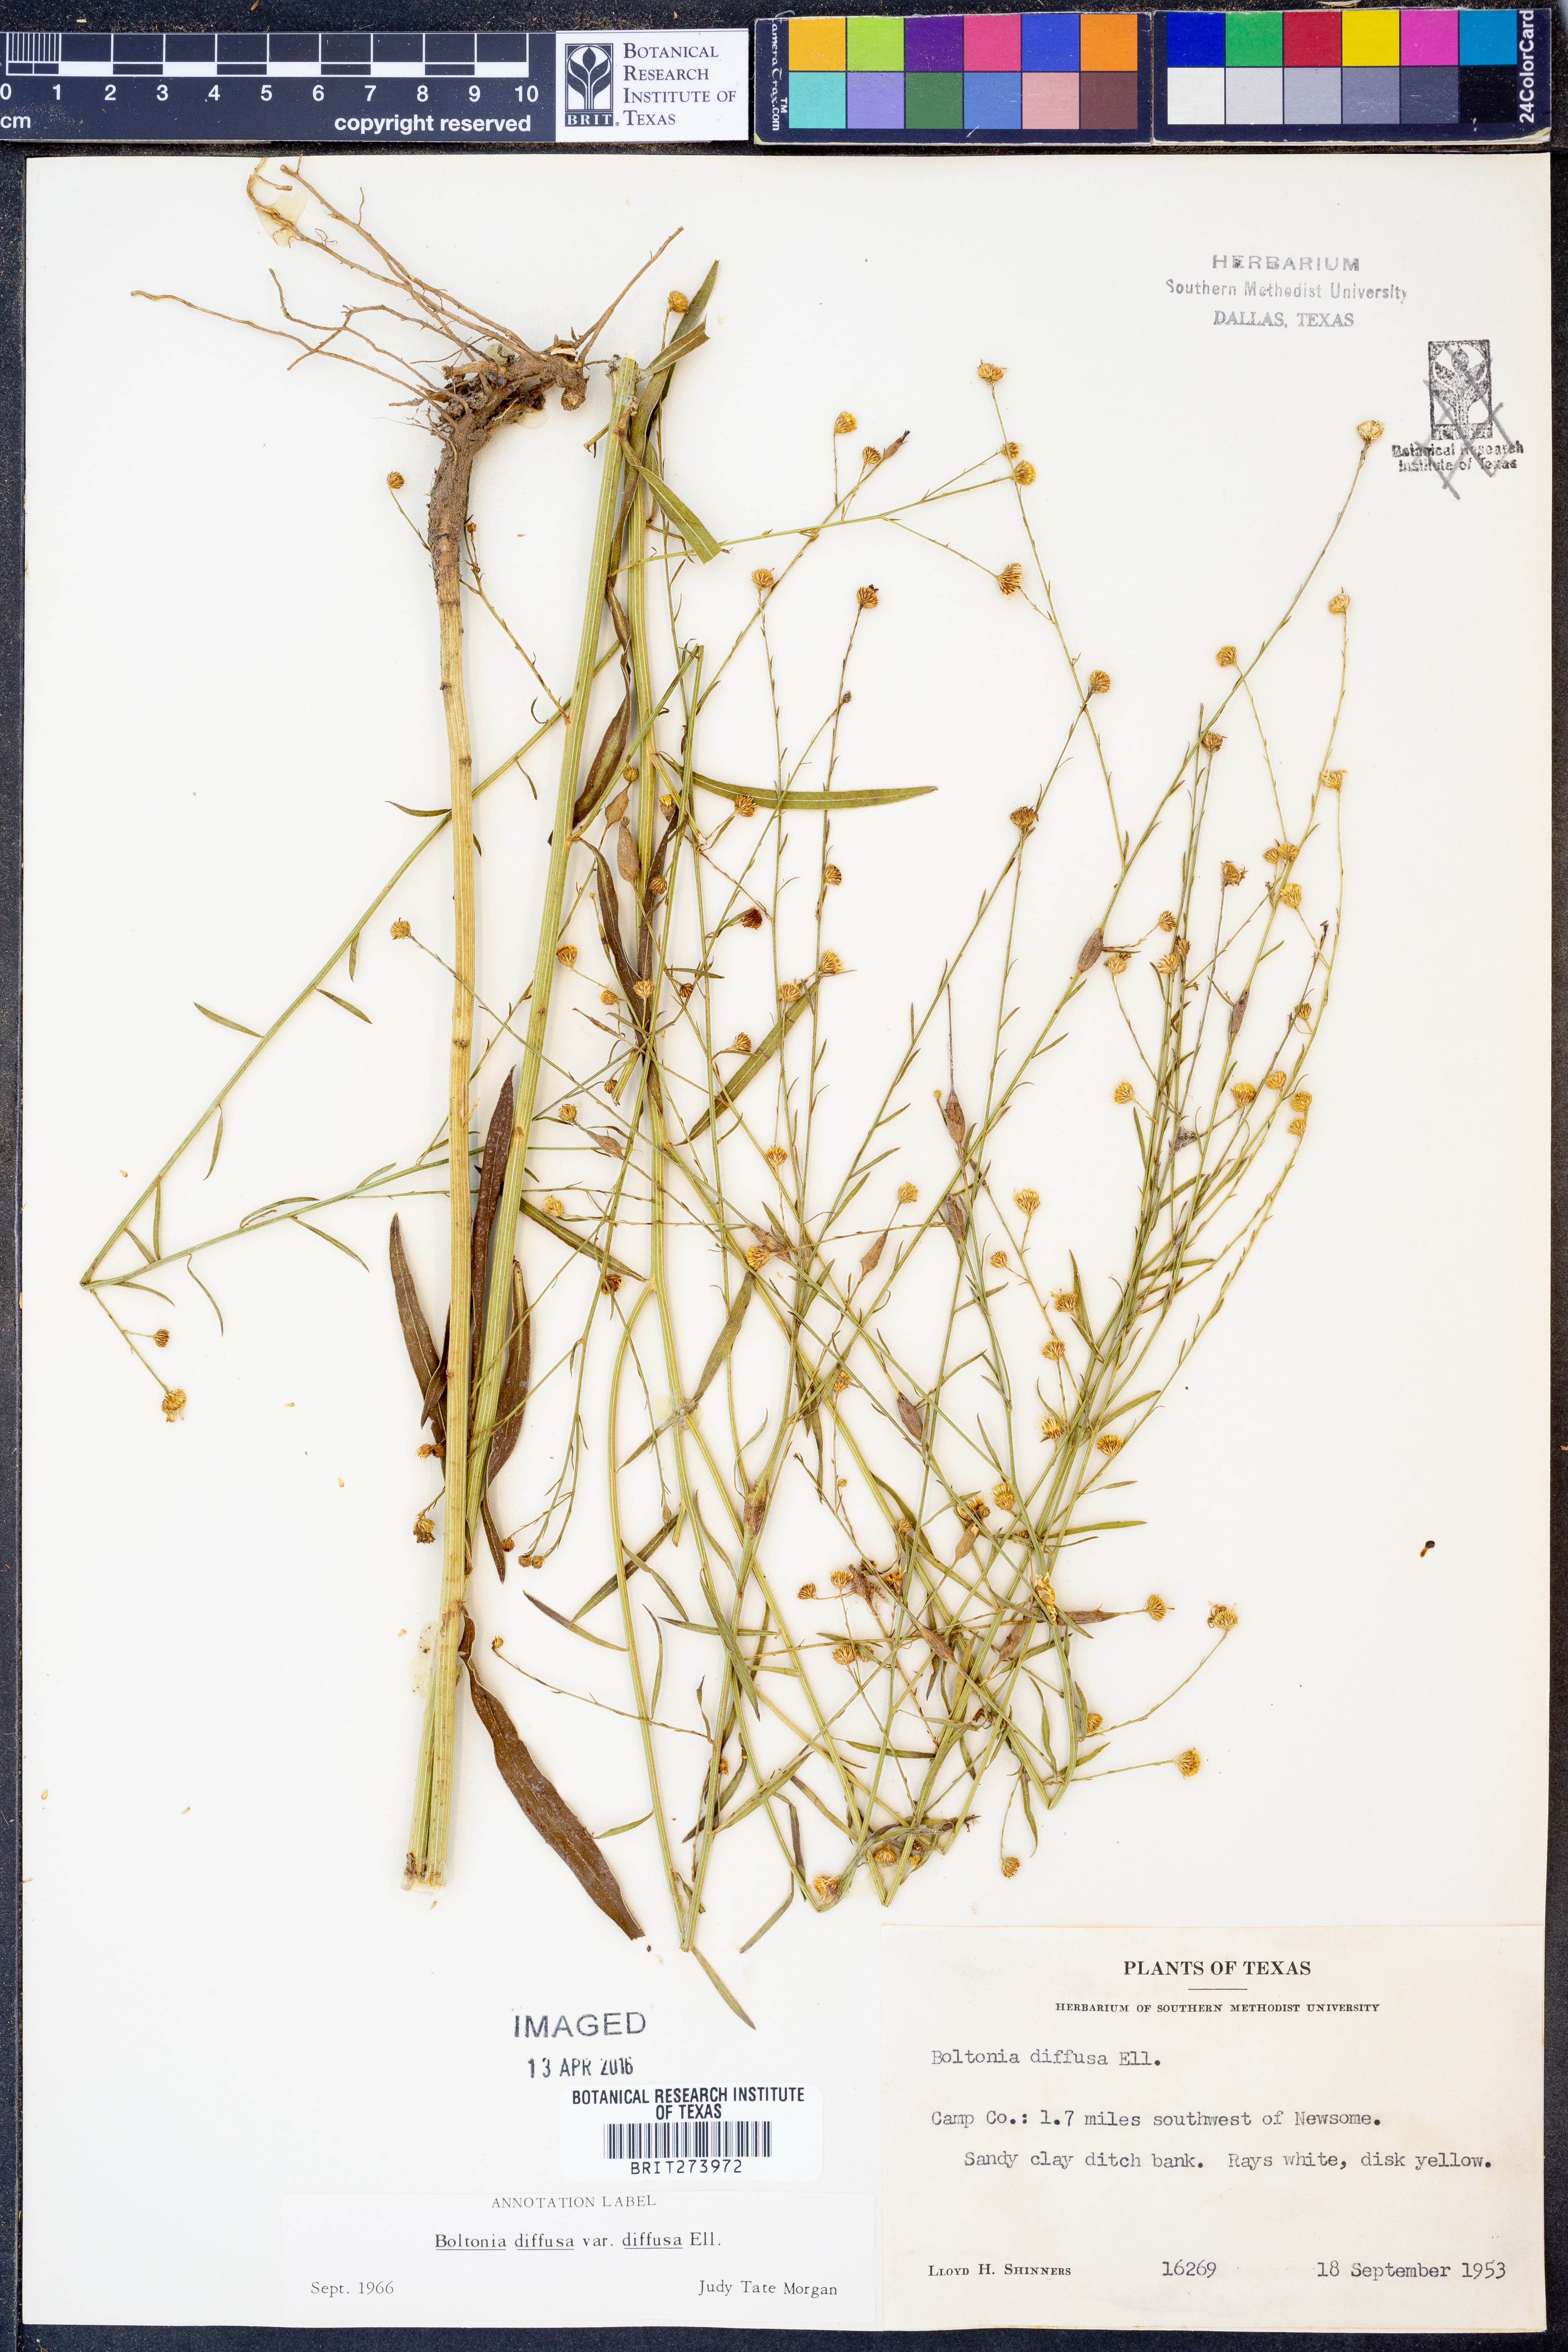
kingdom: Plantae
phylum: Tracheophyta
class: Magnoliopsida
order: Asterales
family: Asteraceae
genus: Boltonia
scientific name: Boltonia diffusa
